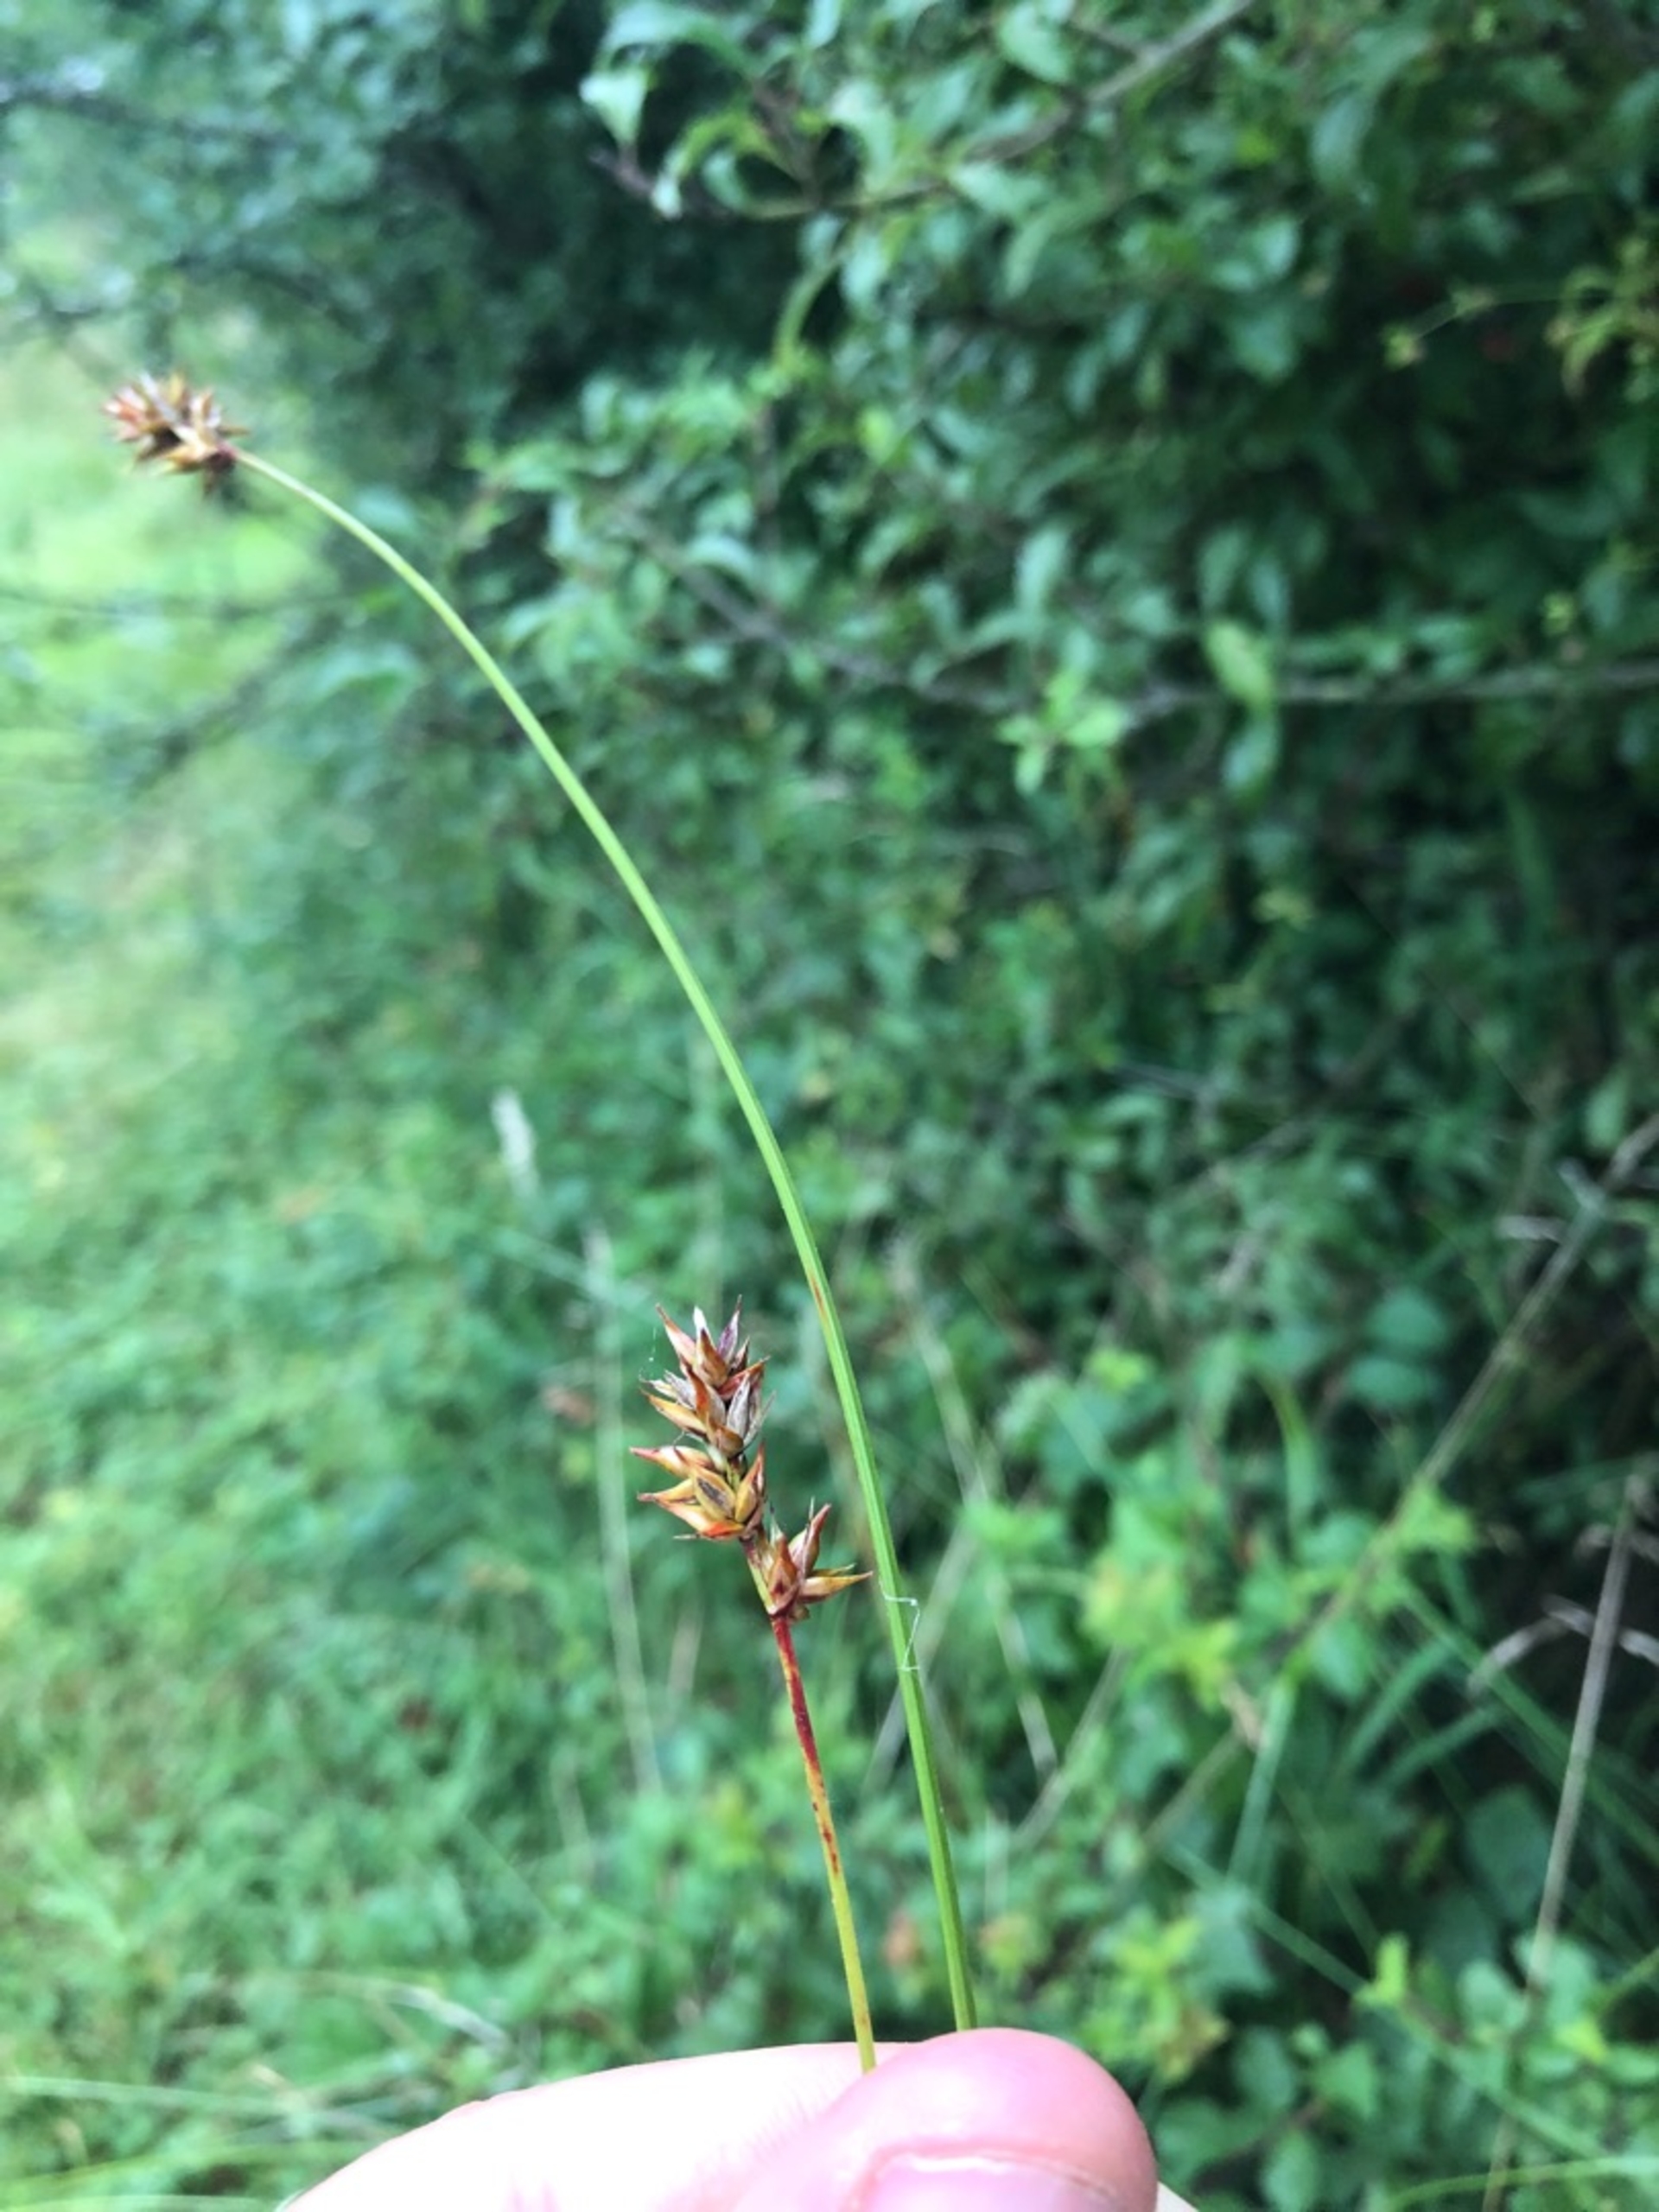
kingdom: Plantae
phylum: Tracheophyta
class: Liliopsida
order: Poales
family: Cyperaceae
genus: Carex
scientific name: Carex spicata
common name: Spidskapslet star
